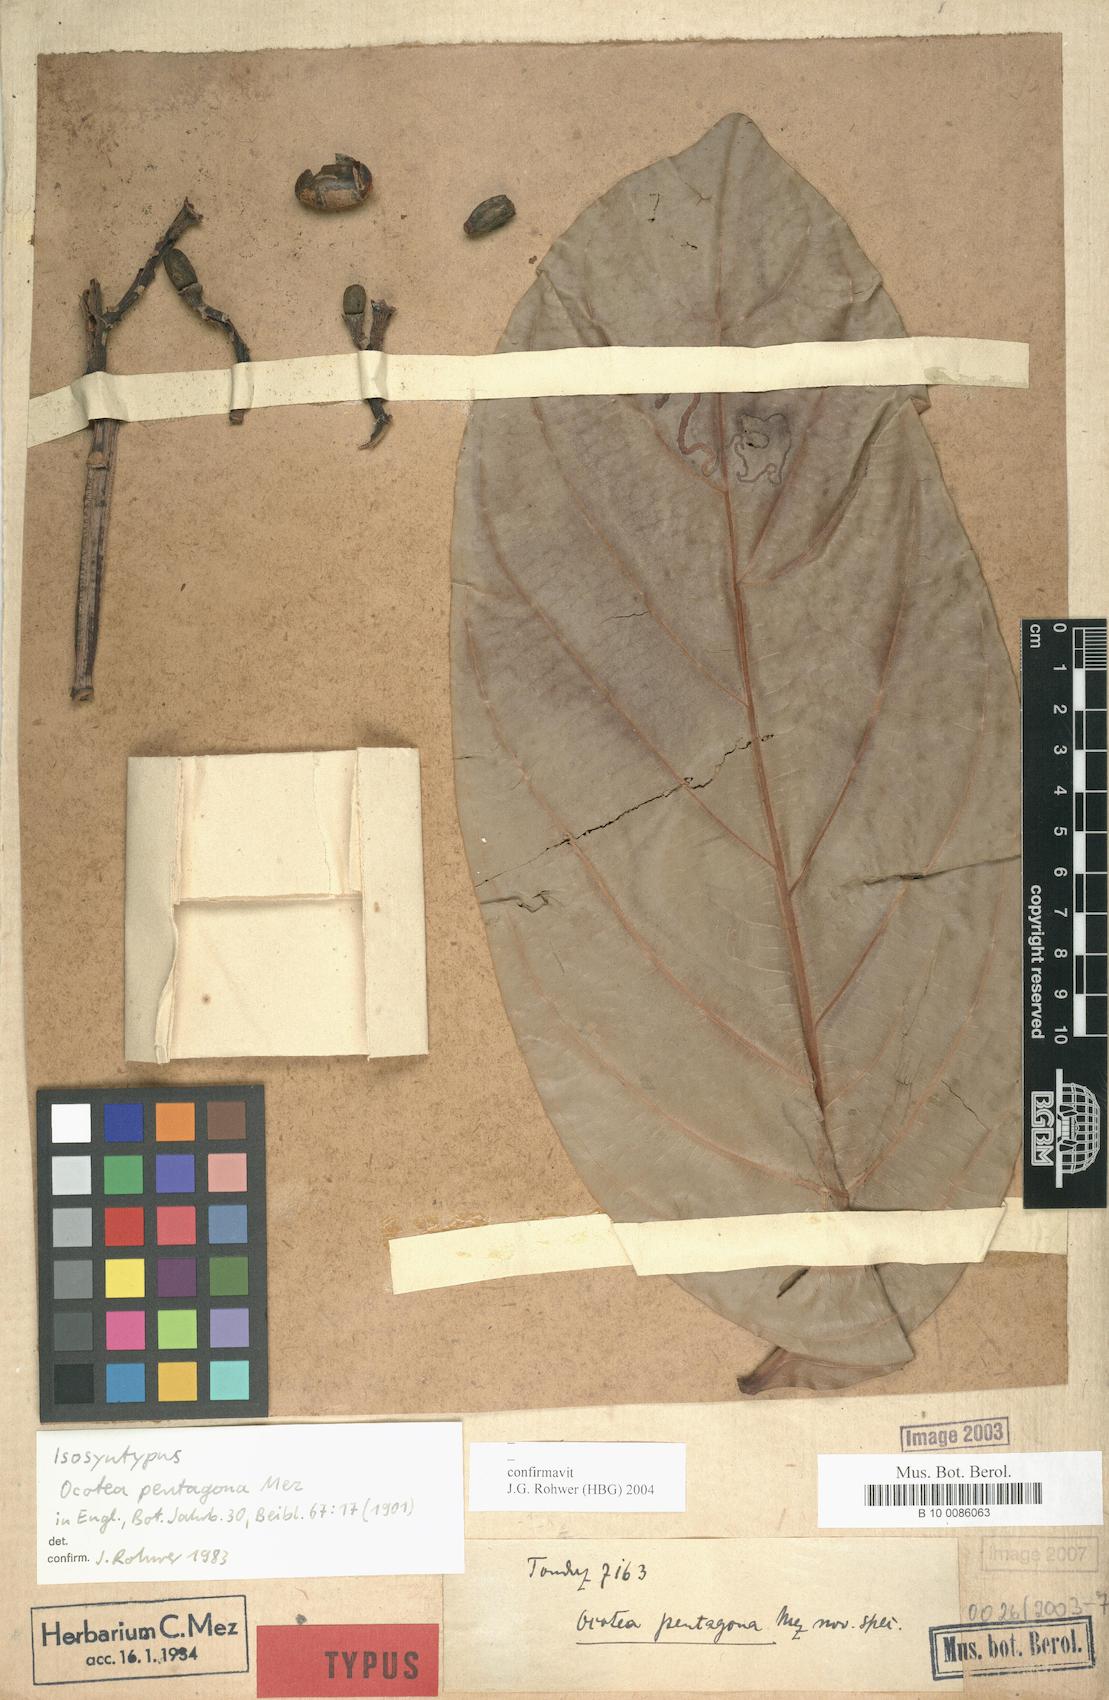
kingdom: Plantae
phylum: Tracheophyta
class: Magnoliopsida
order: Laurales
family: Lauraceae
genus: Ocotea
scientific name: Ocotea pentagona
